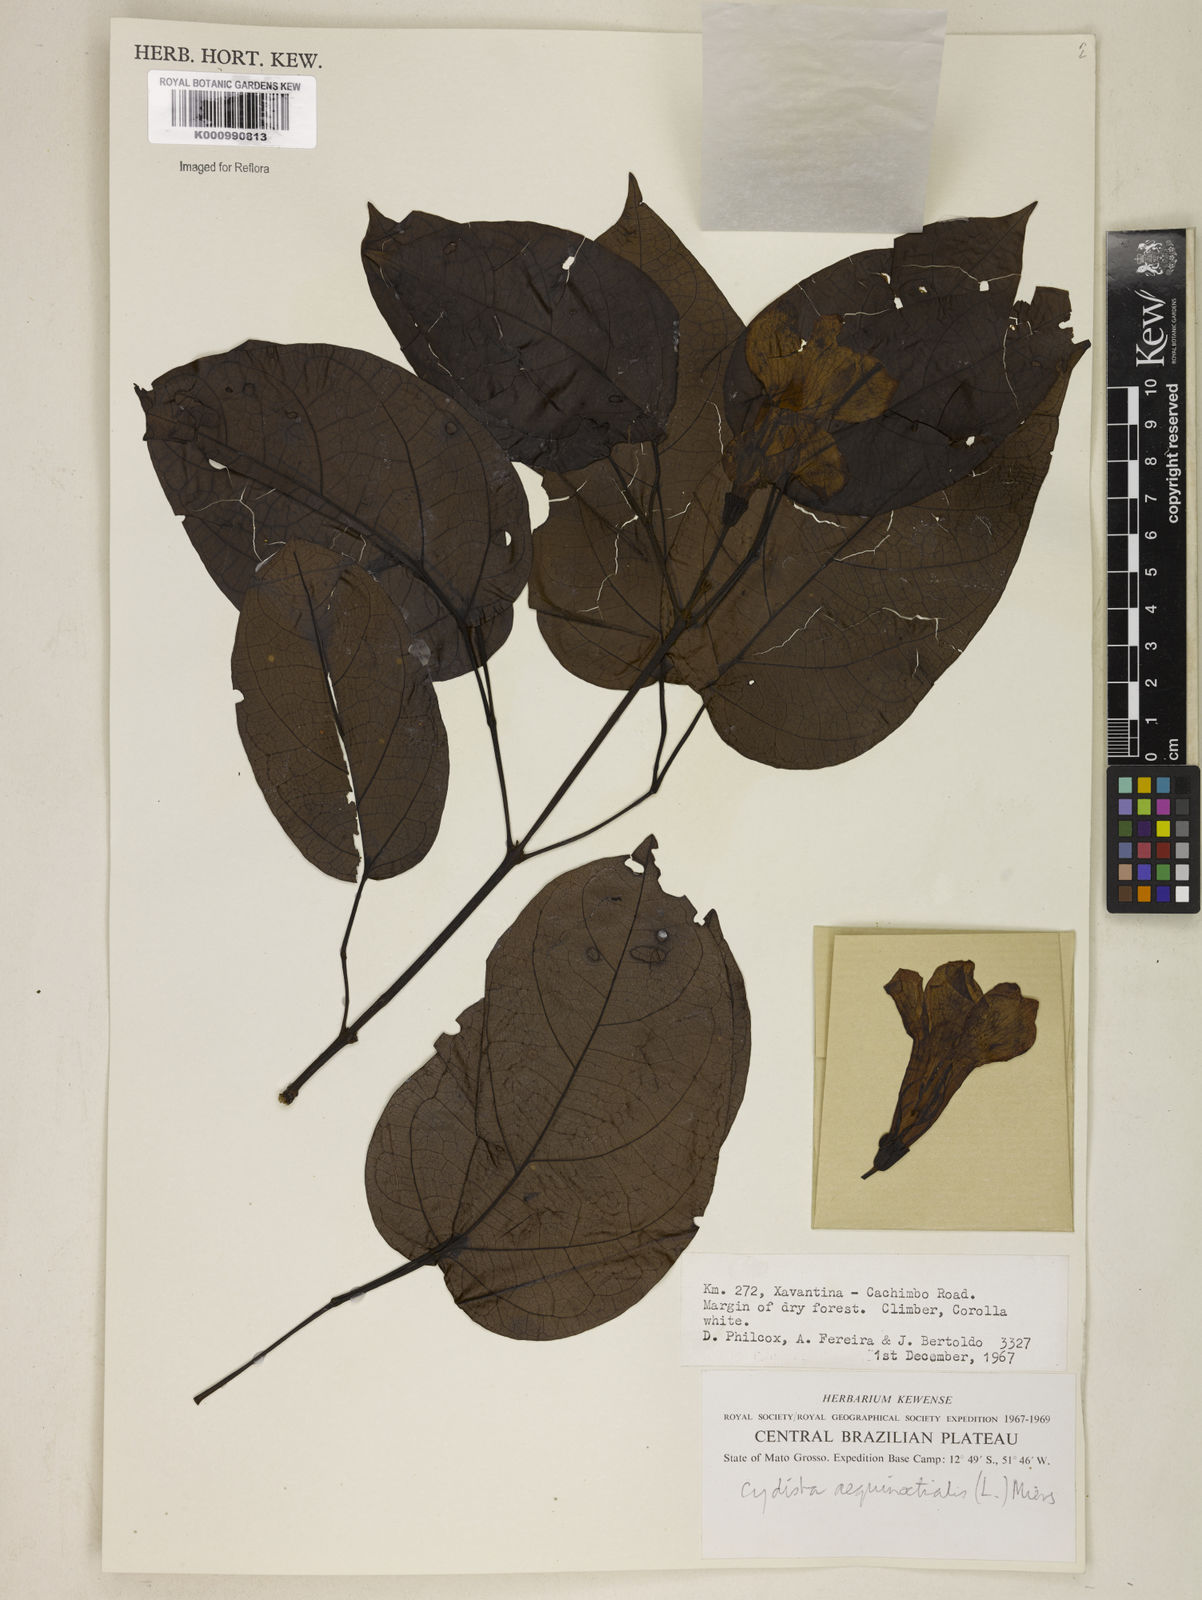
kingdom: Plantae
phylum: Tracheophyta
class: Magnoliopsida
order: Lamiales
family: Bignoniaceae
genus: Bignonia
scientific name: Bignonia aequinoctialis
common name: Garlicvine
